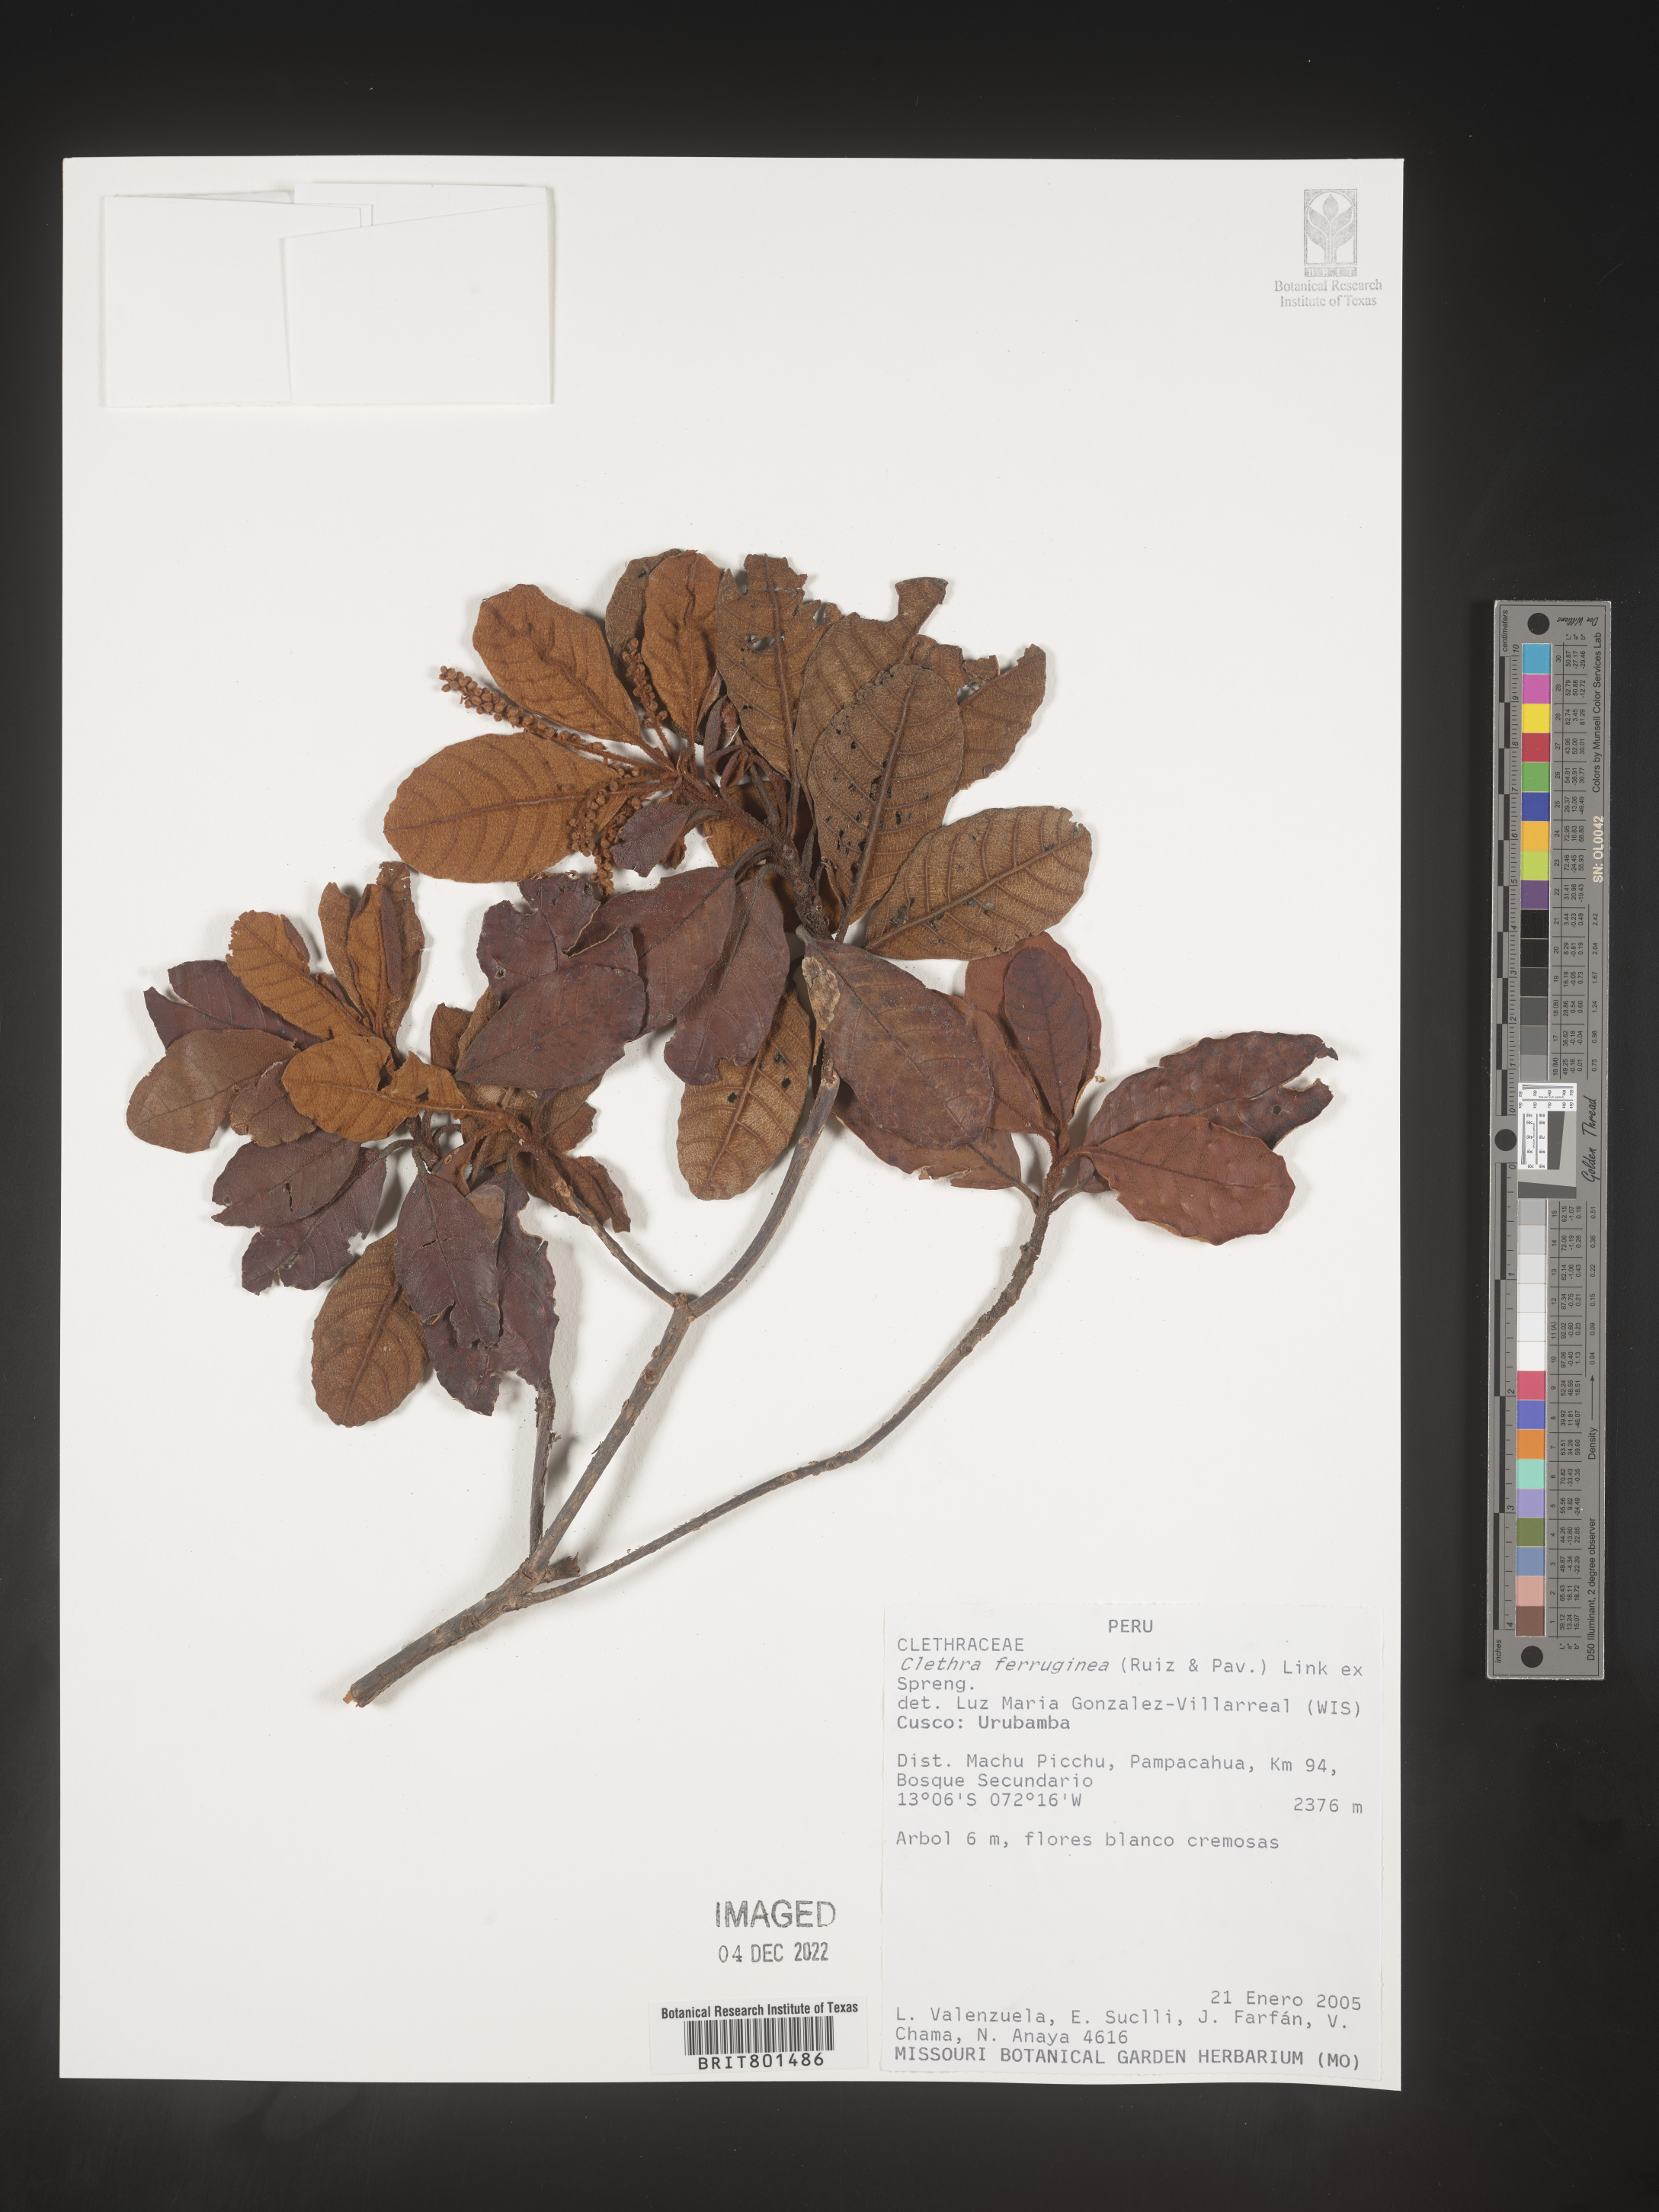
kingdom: Plantae
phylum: Tracheophyta
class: Magnoliopsida
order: Ericales
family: Clethraceae
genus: Clethra
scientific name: Clethra
